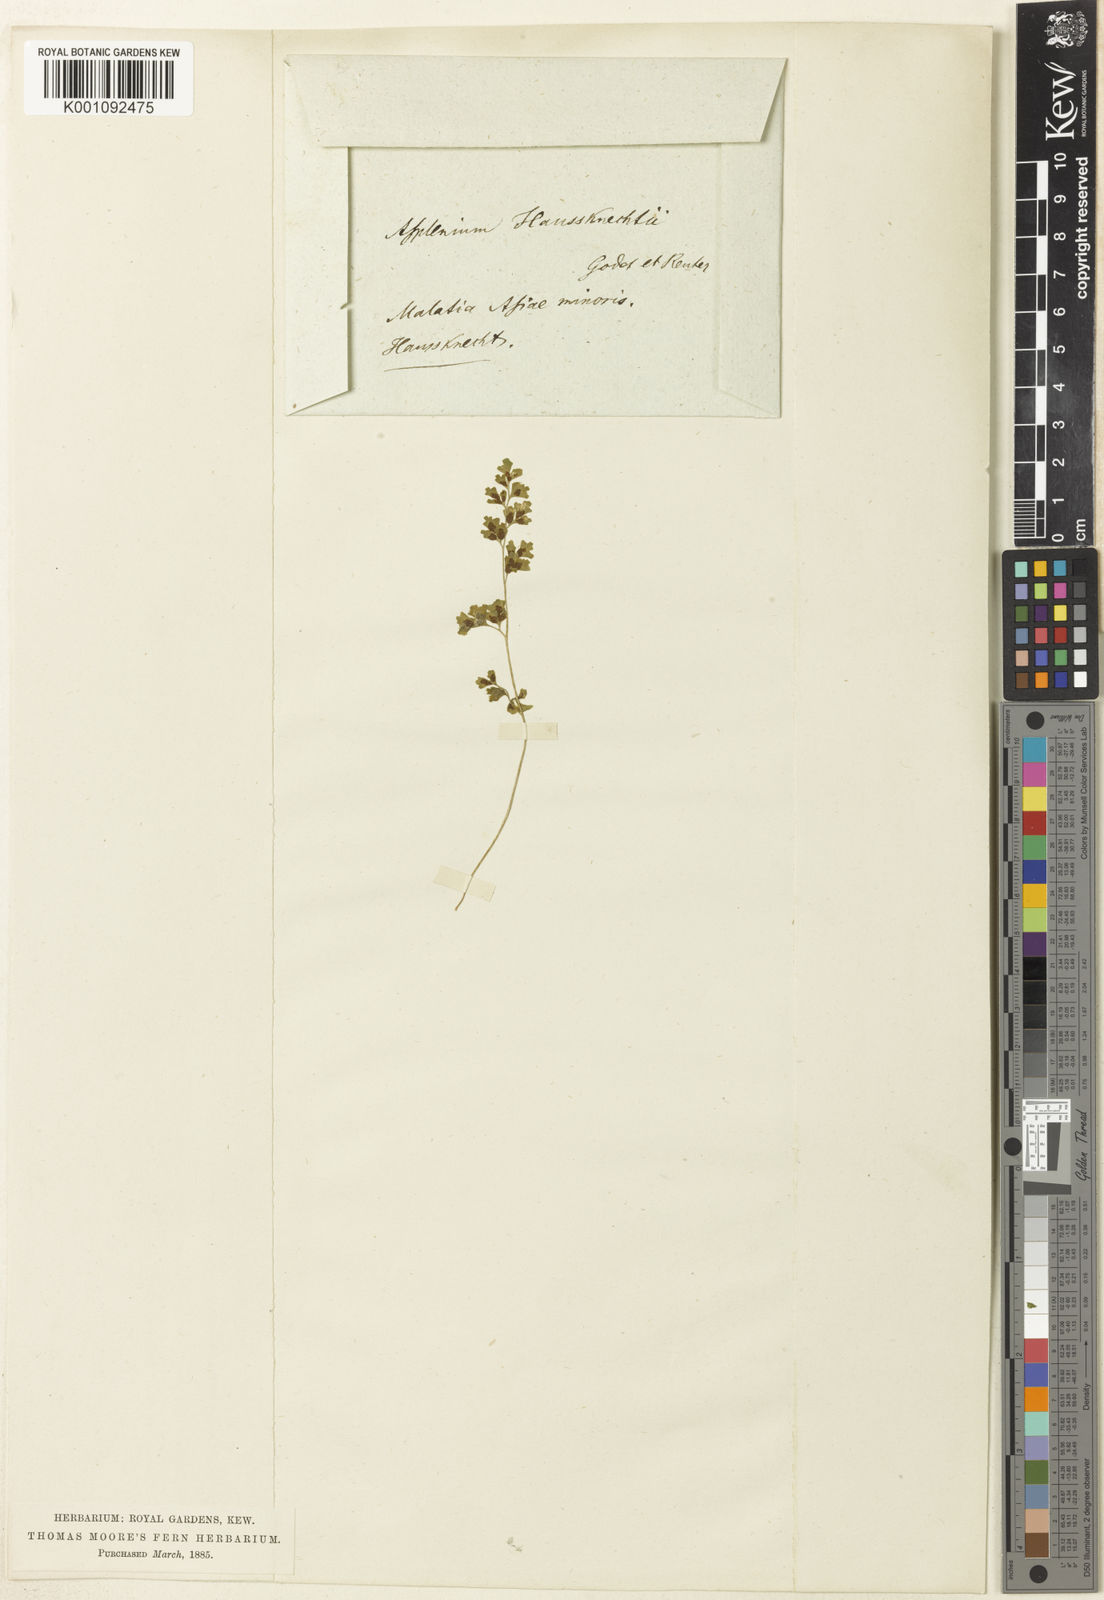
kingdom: Plantae
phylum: Tracheophyta
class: Polypodiopsida
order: Polypodiales
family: Aspleniaceae
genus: Asplenium
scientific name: Asplenium
